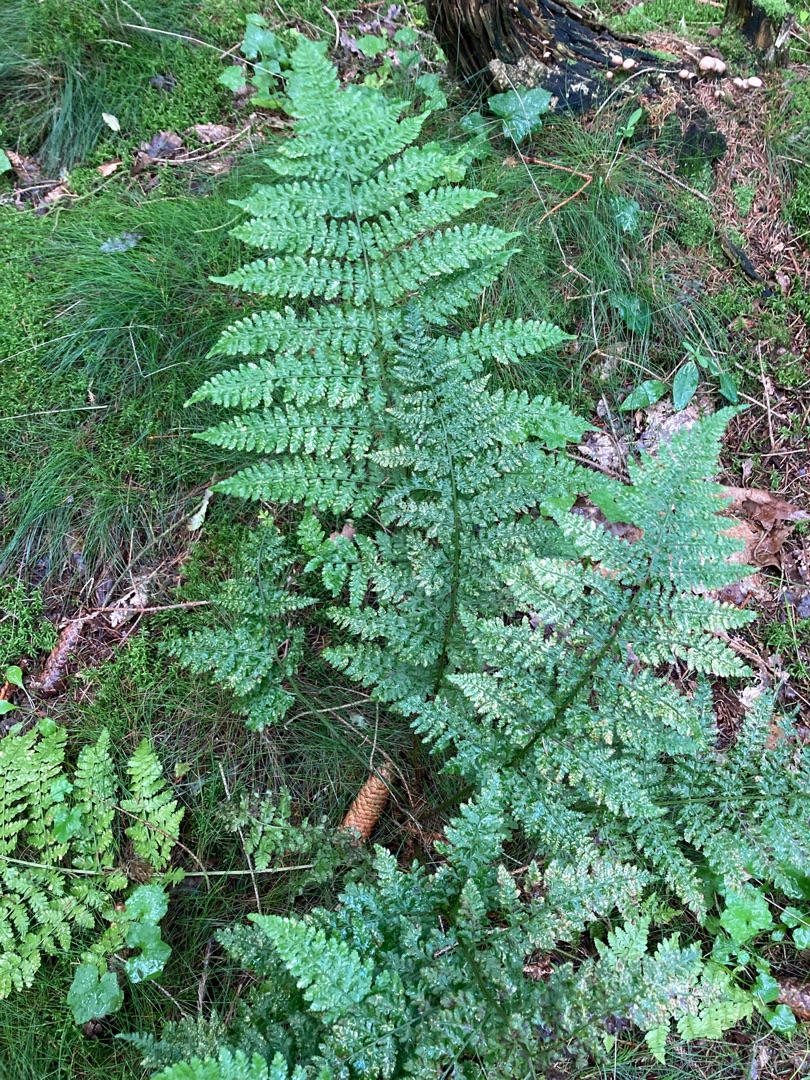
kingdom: Plantae
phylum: Tracheophyta
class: Polypodiopsida
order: Polypodiales
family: Dryopteridaceae
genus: Dryopteris
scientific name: Dryopteris dilatata
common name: Bredbladet mangeløv
